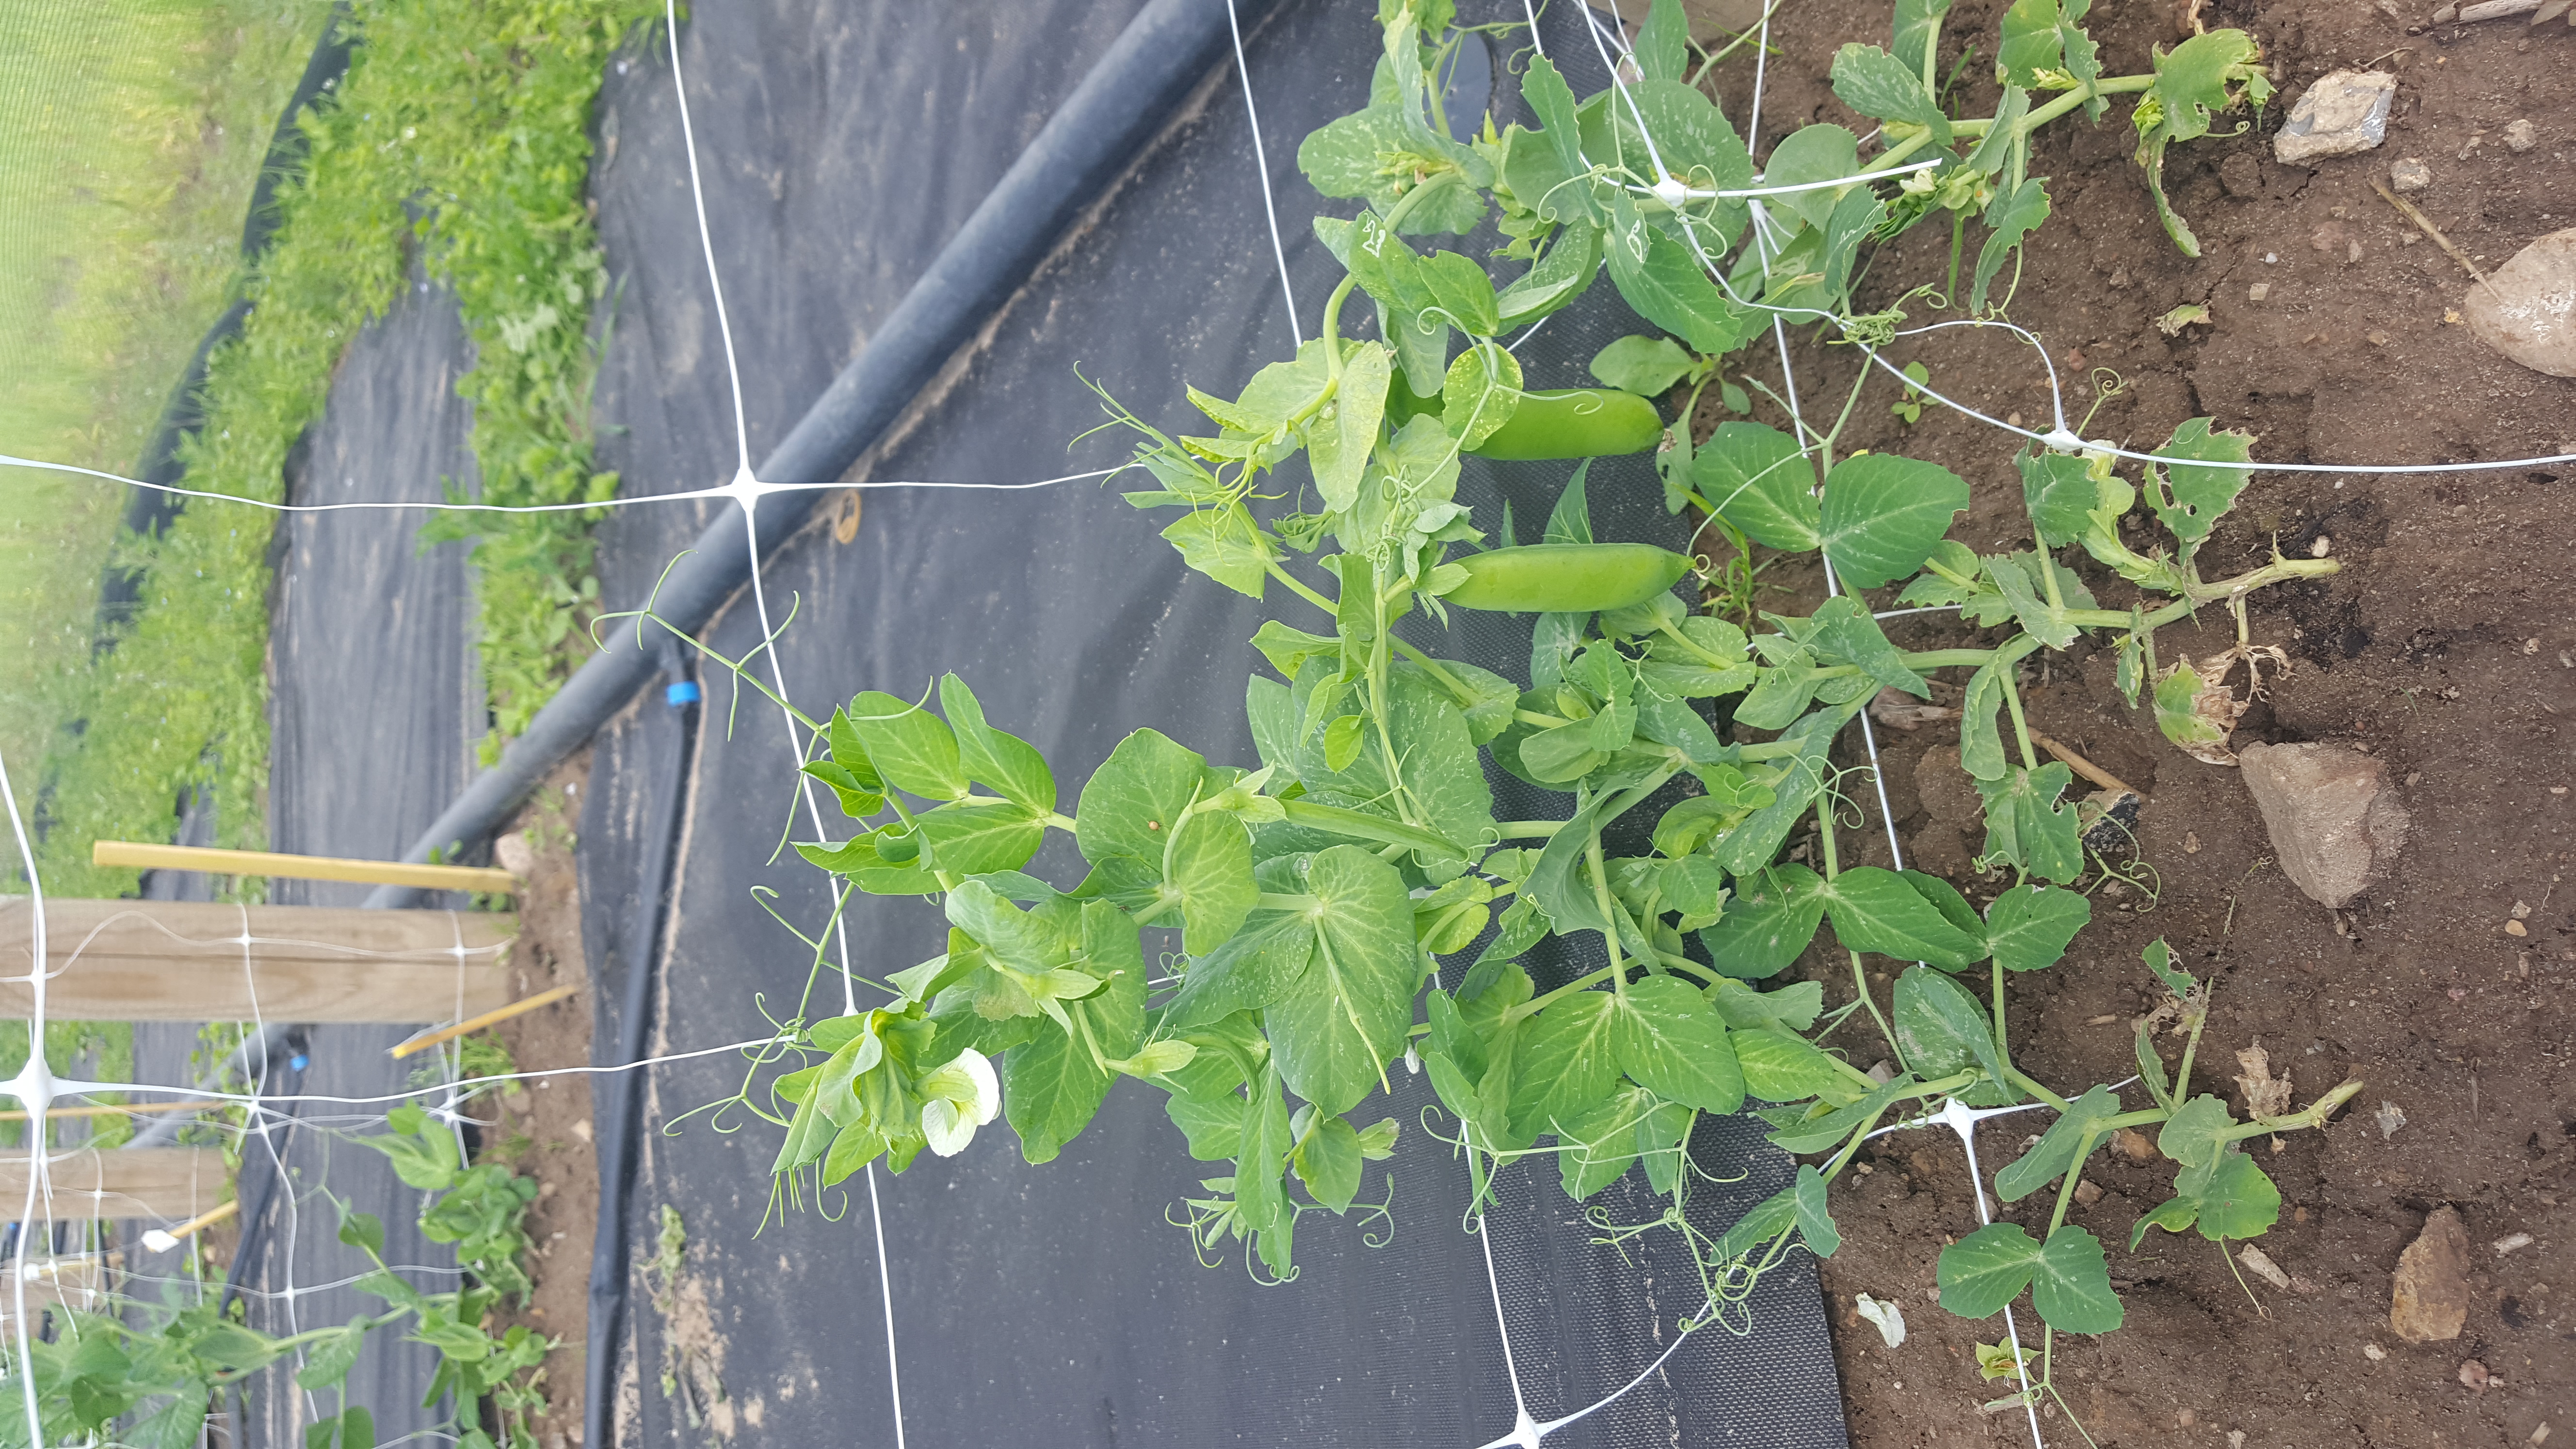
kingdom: Plantae
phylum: Tracheophyta
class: Magnoliopsida
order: Fabales
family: Fabaceae
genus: Lathyrus
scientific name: Lathyrus oleraceus
